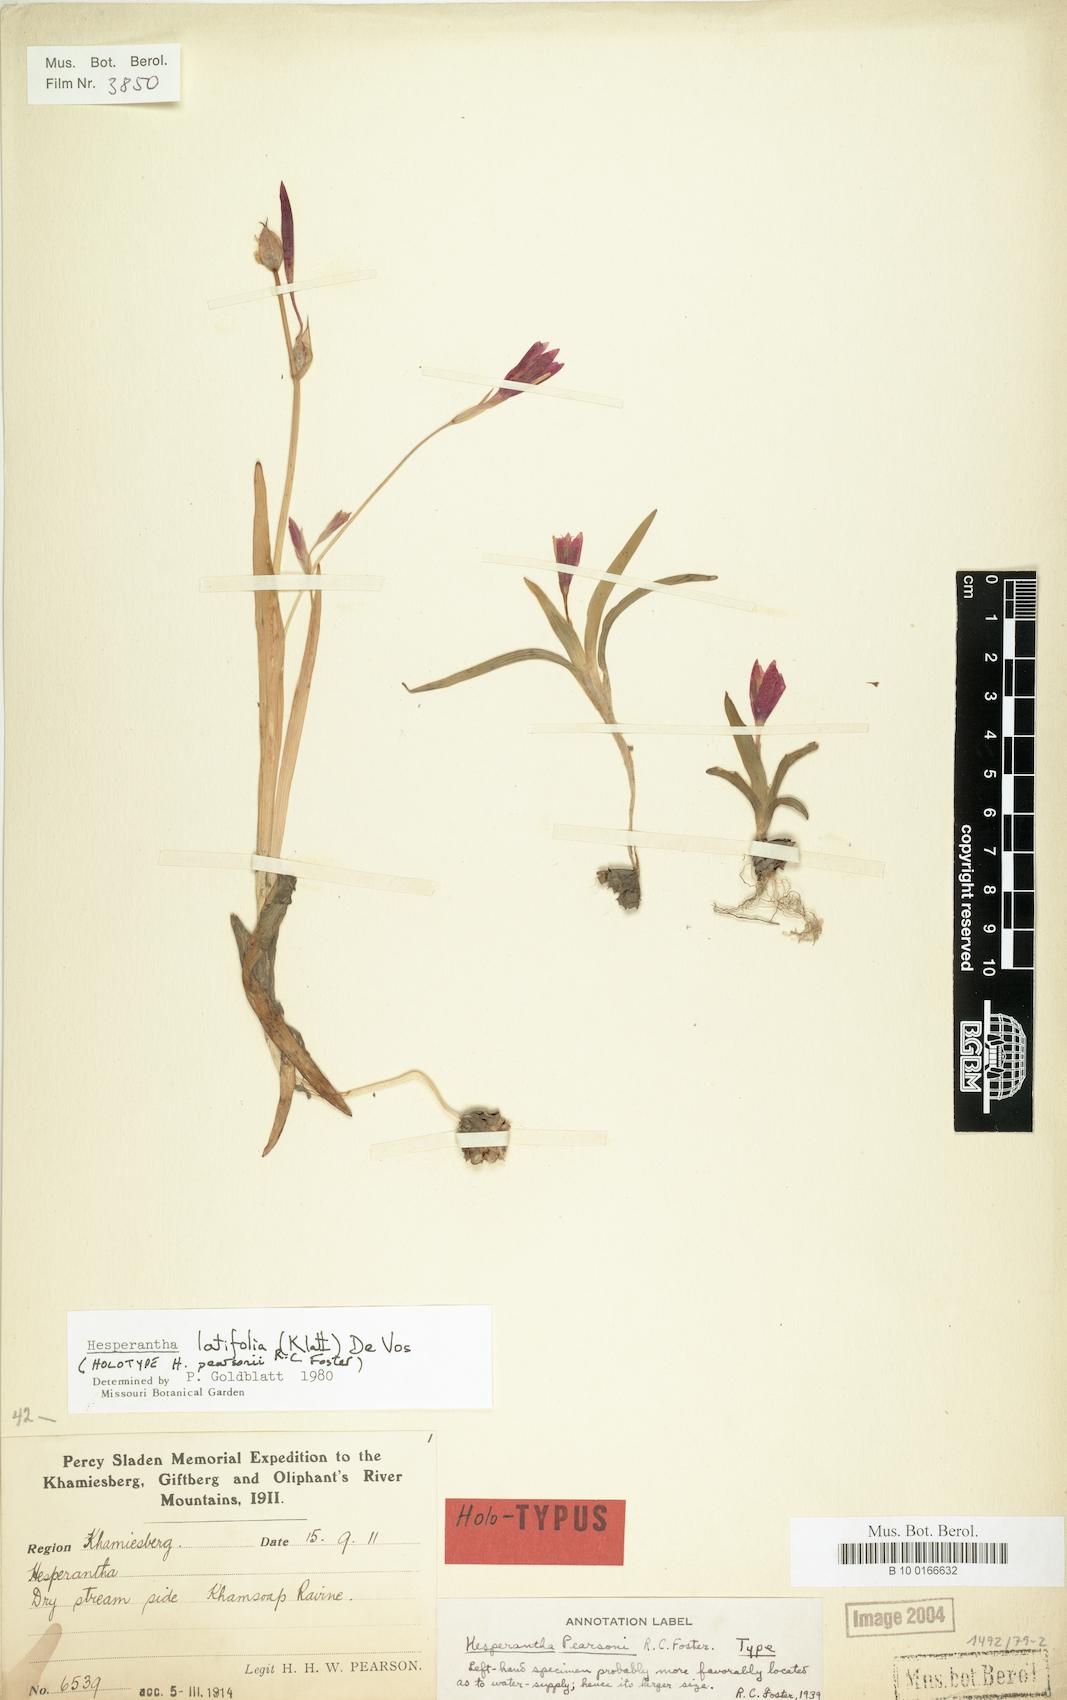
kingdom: Plantae
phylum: Tracheophyta
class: Liliopsida
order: Asparagales
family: Iridaceae
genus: Hesperantha
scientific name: Hesperantha latifolia
